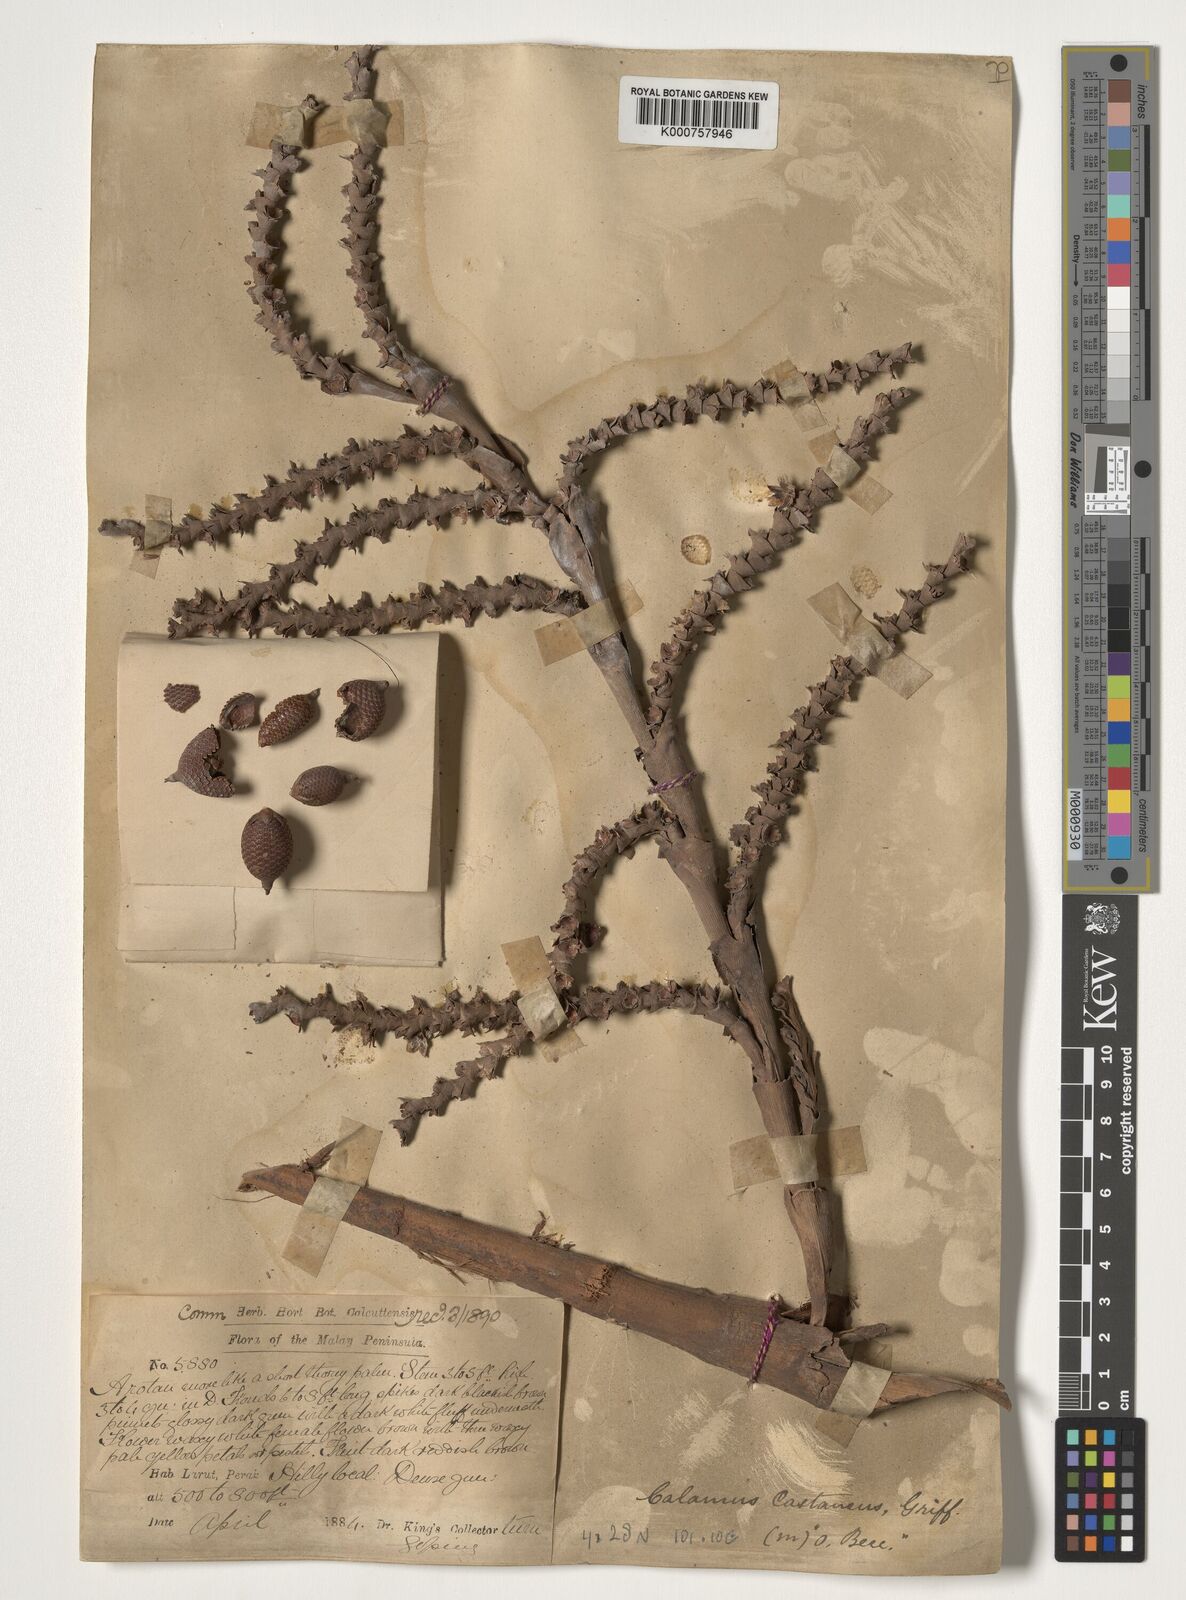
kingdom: Plantae
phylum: Tracheophyta
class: Liliopsida
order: Arecales
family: Arecaceae
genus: Calamus
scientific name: Calamus castaneus
